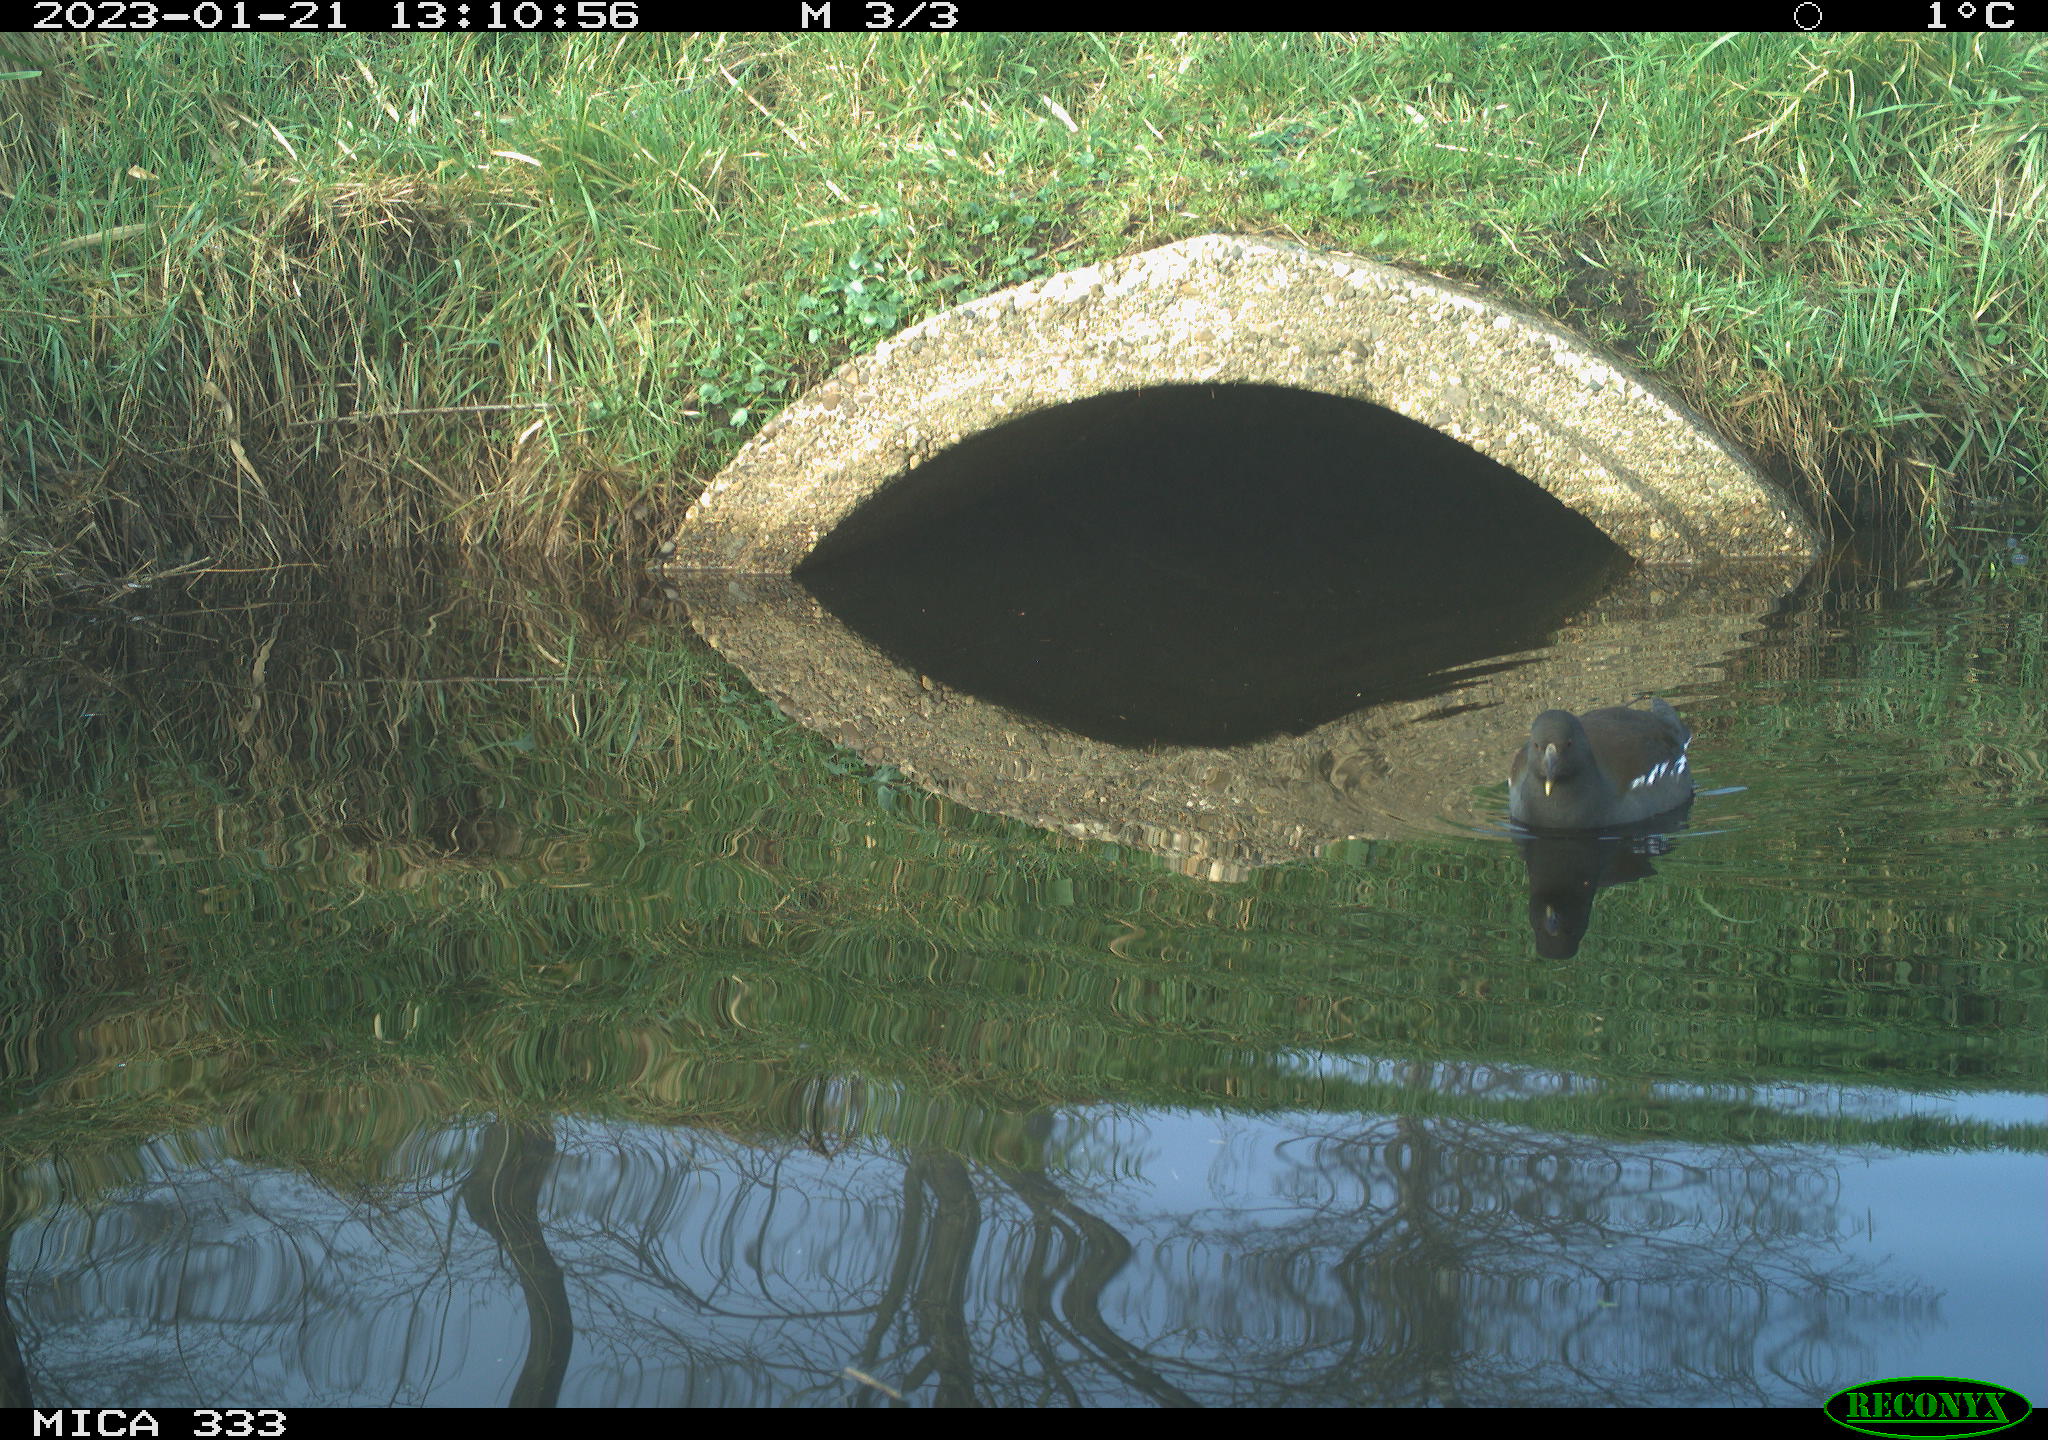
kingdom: Animalia
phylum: Chordata
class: Aves
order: Gruiformes
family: Rallidae
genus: Gallinula
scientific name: Gallinula chloropus
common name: Common moorhen
